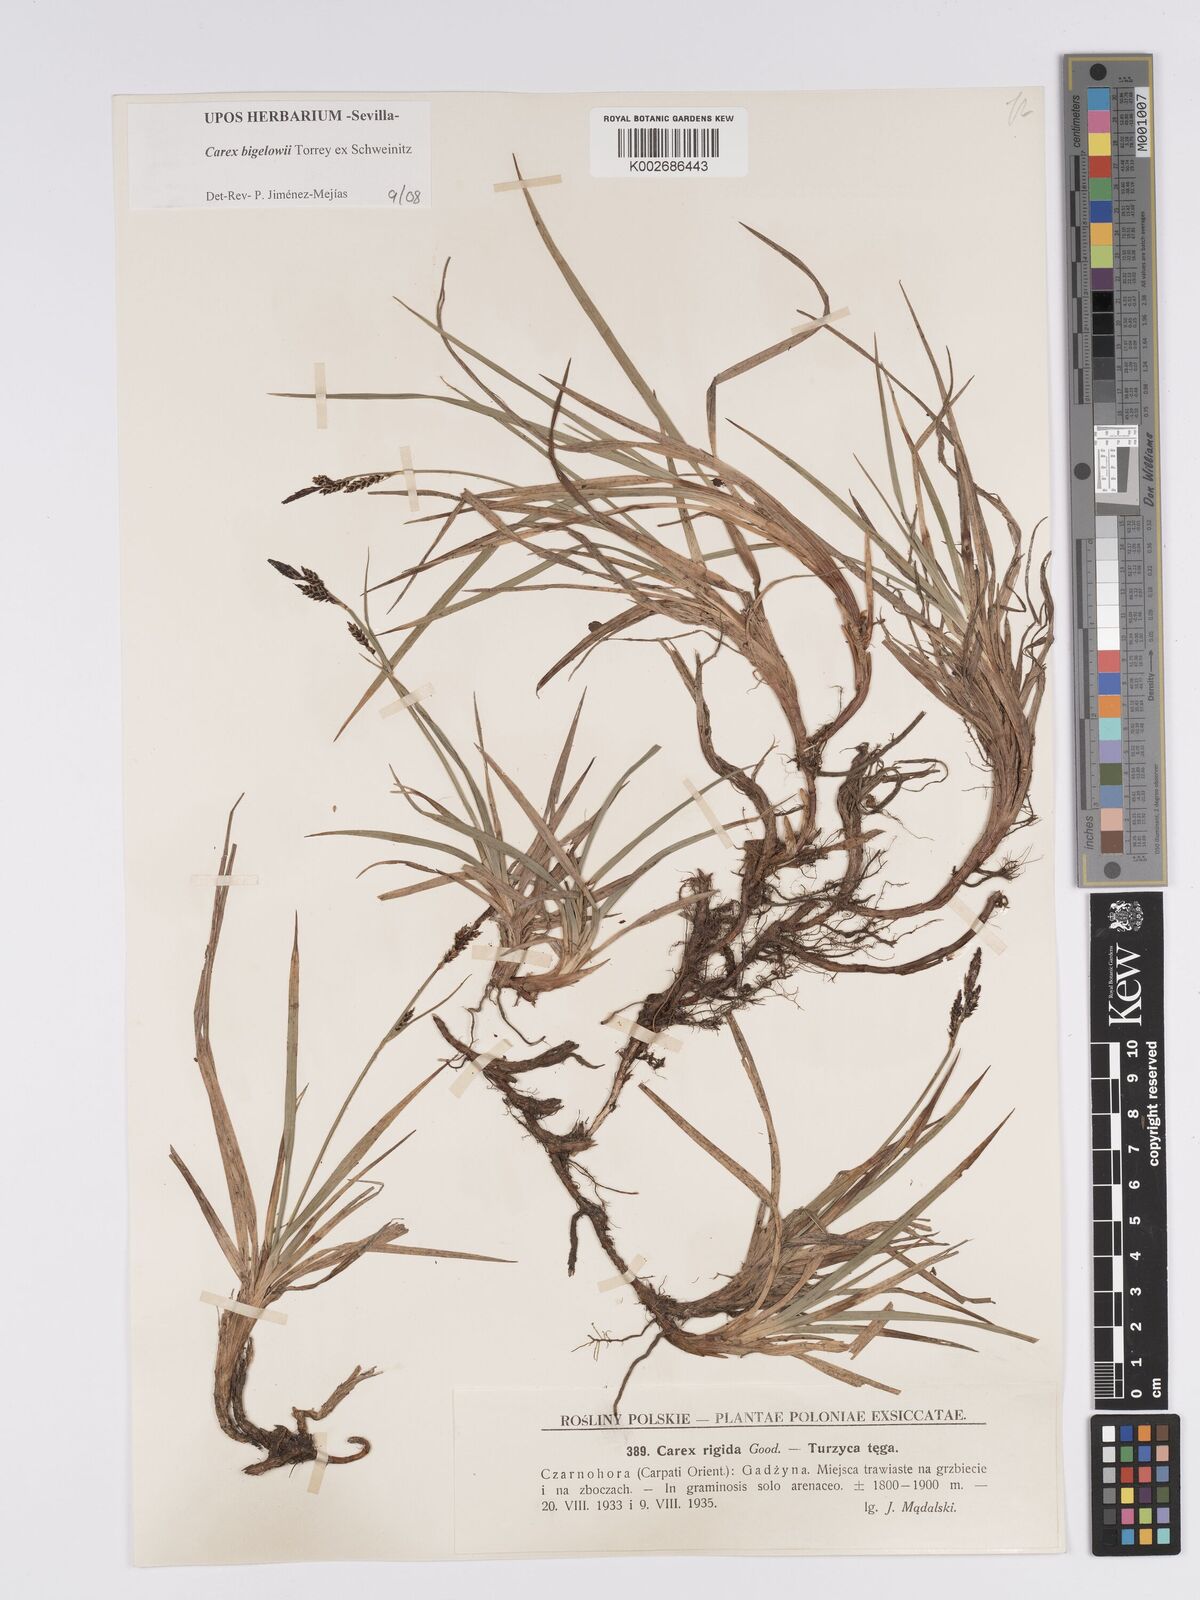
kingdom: Plantae
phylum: Tracheophyta
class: Liliopsida
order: Poales
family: Cyperaceae
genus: Carex
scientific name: Carex bigelowii
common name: Stiff sedge
